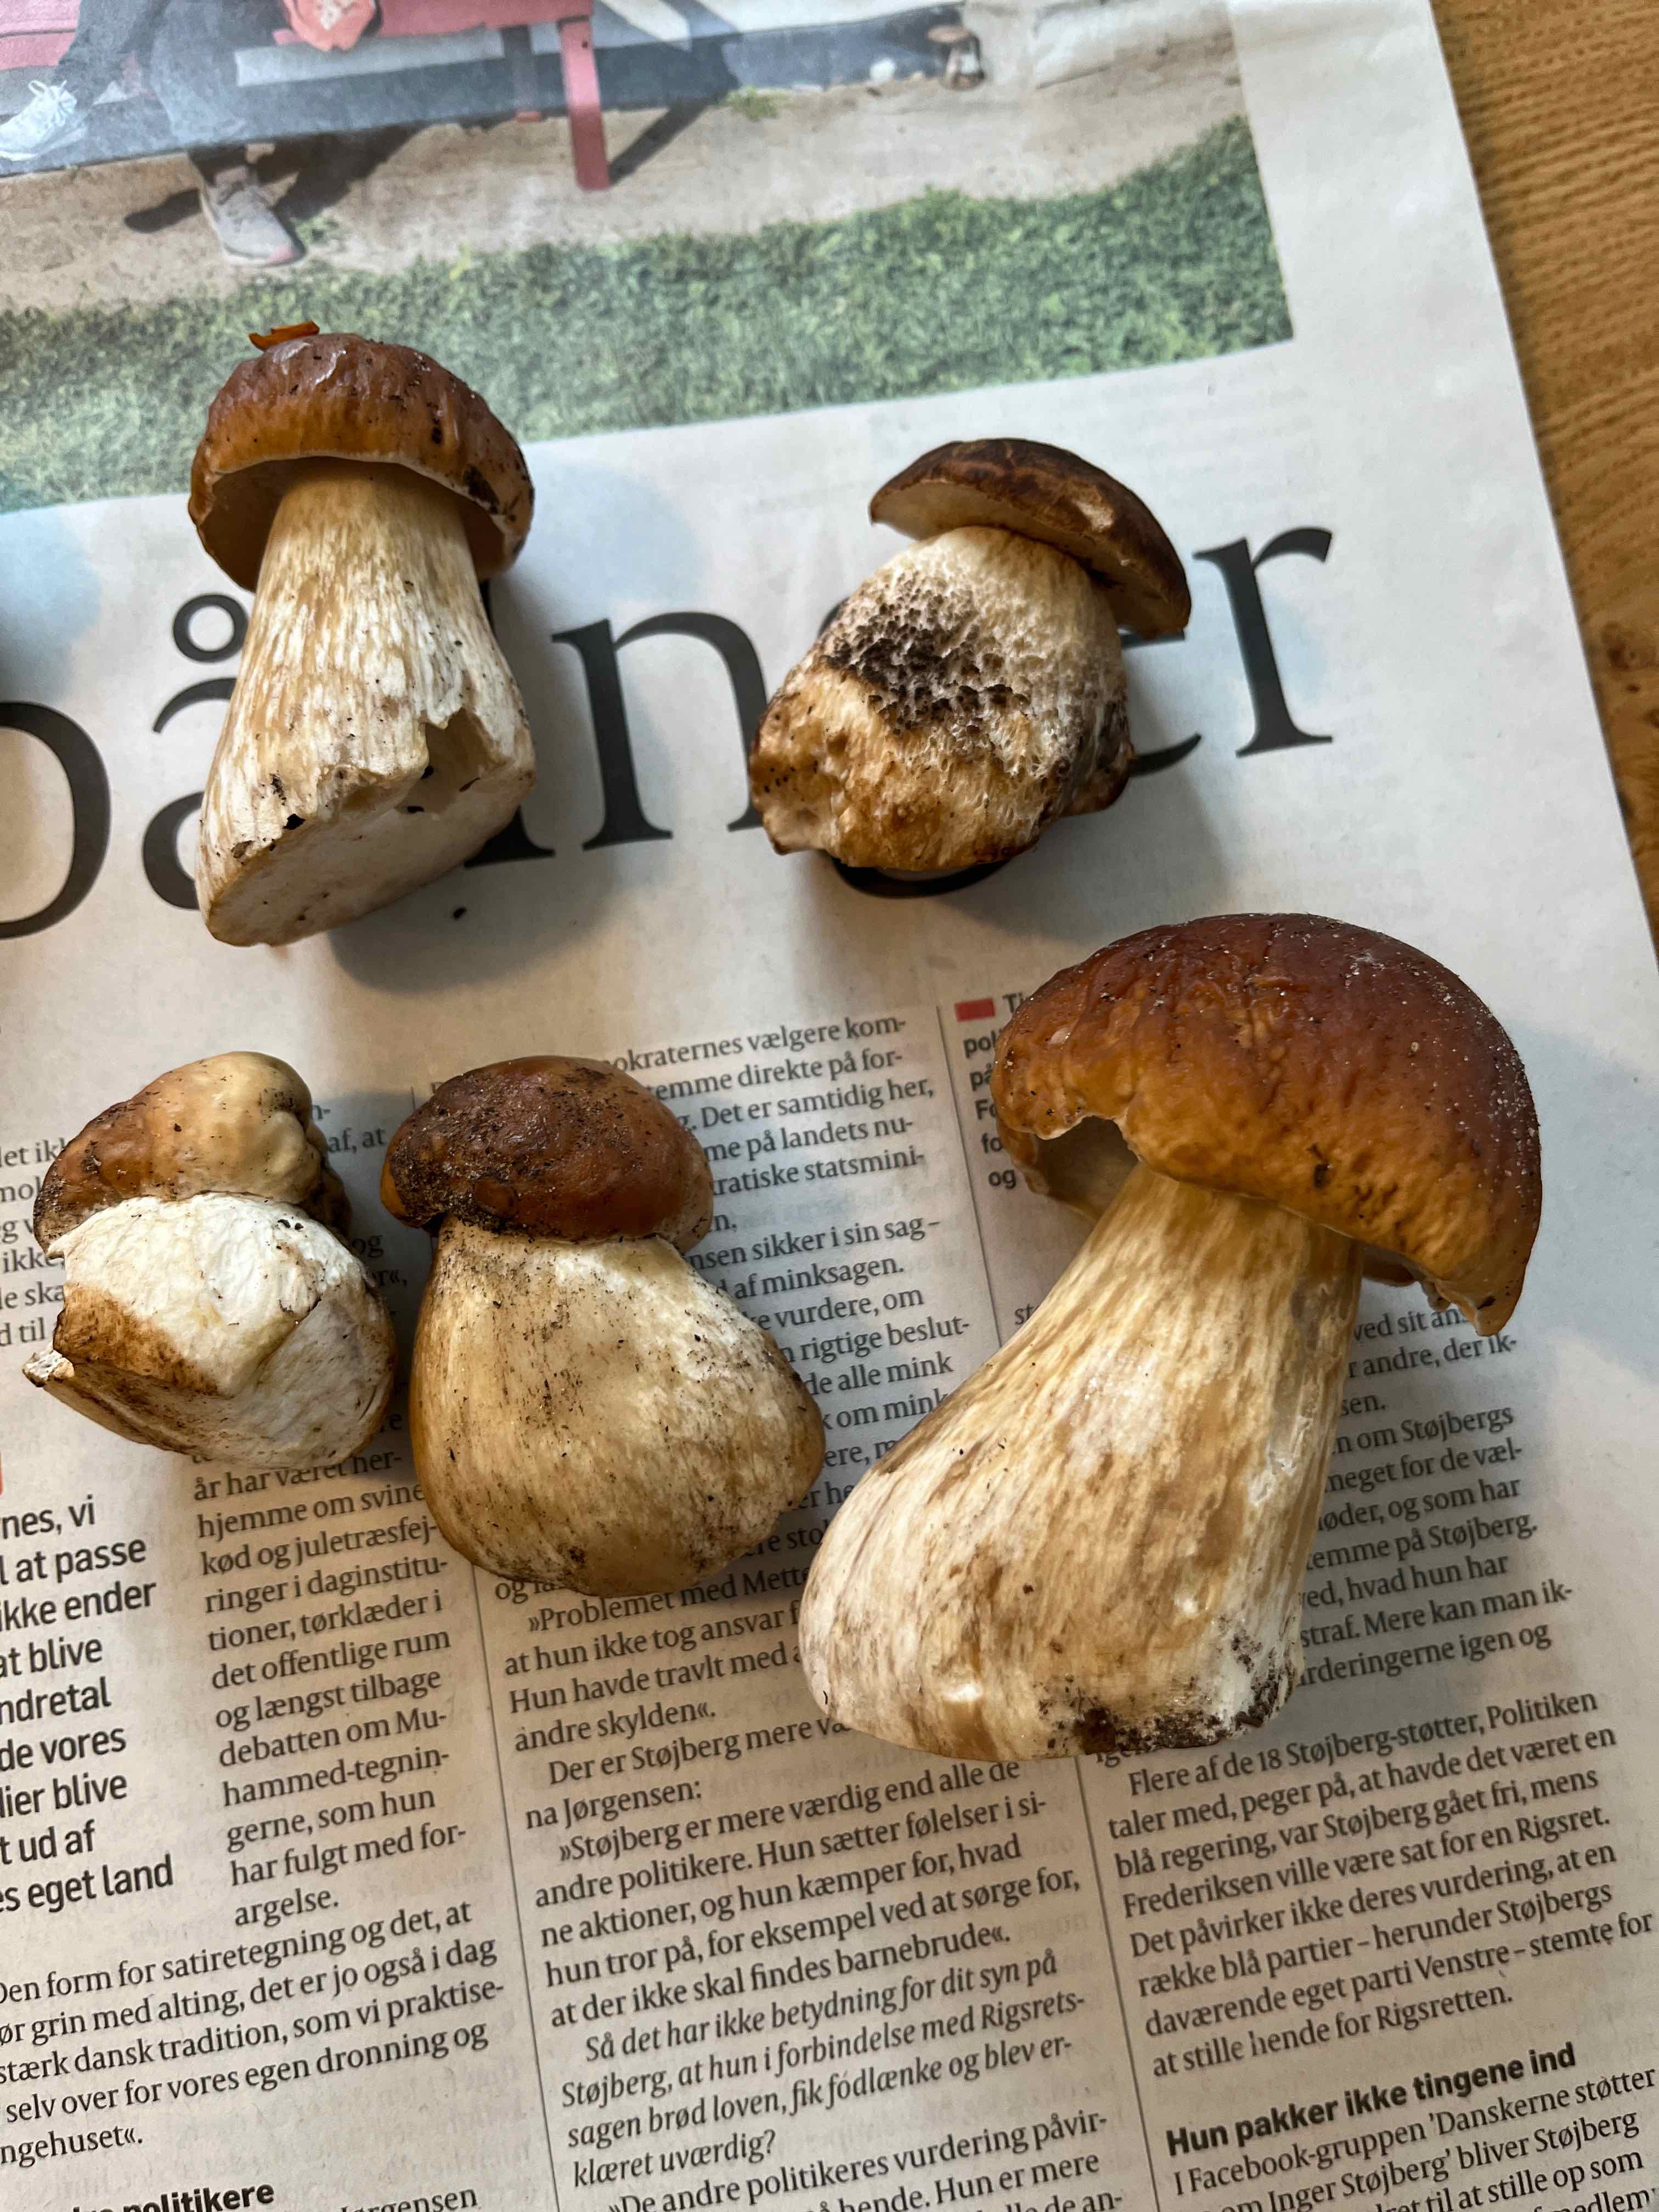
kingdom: Fungi
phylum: Basidiomycota
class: Agaricomycetes
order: Boletales
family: Boletaceae
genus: Boletus
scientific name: Boletus edulis
